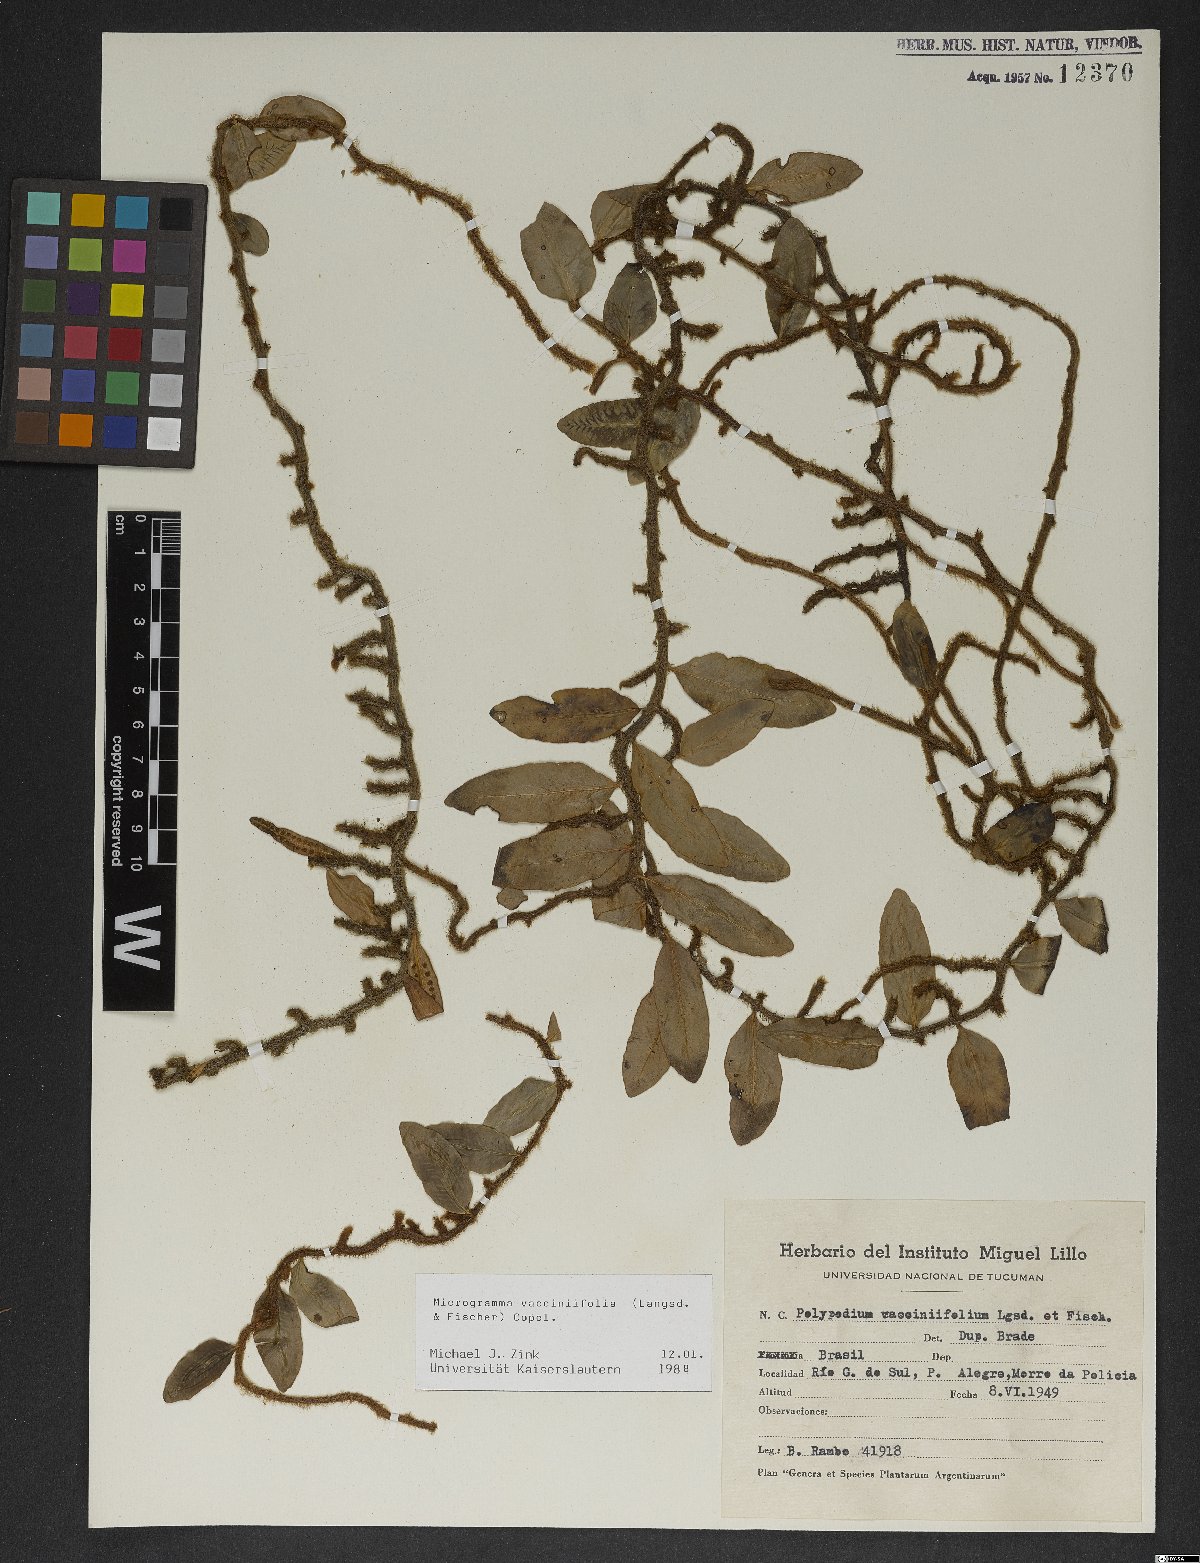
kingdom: Plantae
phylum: Tracheophyta
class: Polypodiopsida
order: Polypodiales
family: Polypodiaceae
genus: Microgramma
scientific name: Microgramma vaccinifolia
